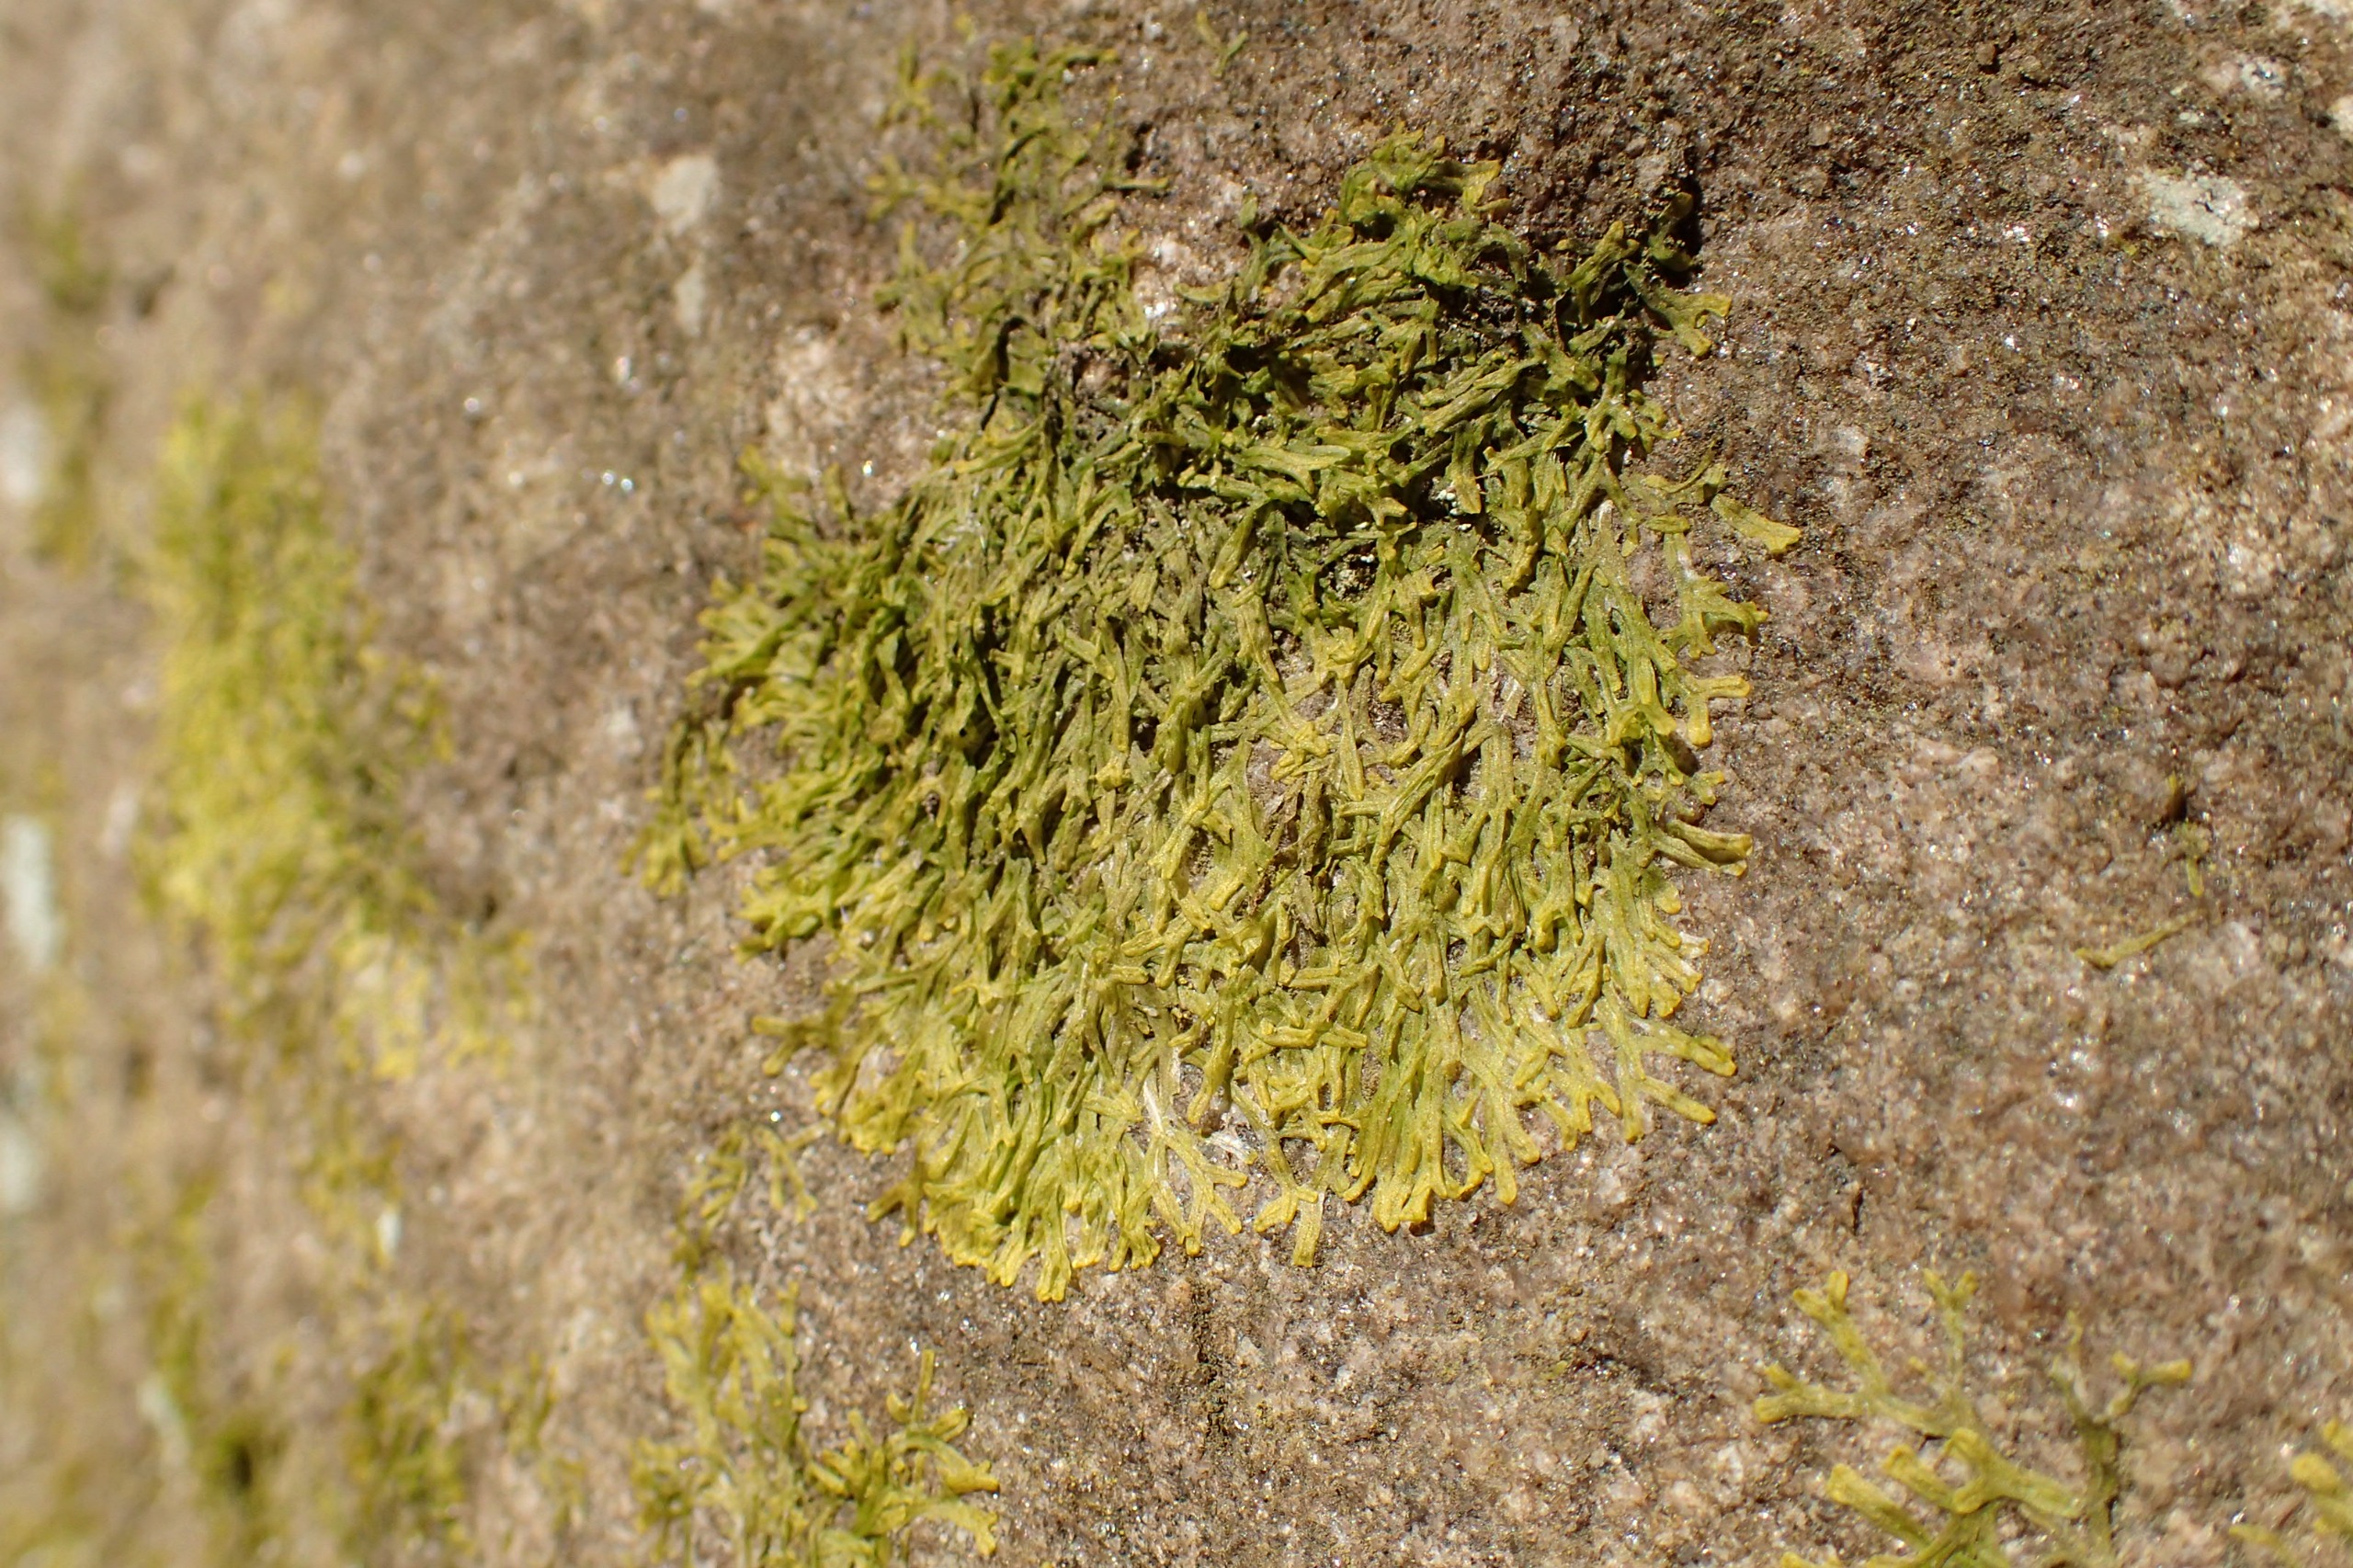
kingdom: Plantae
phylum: Marchantiophyta
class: Jungermanniopsida
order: Metzgeriales
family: Metzgeriaceae
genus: Metzgeria
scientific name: Metzgeria furcata
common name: Almindelig gaffelløv
